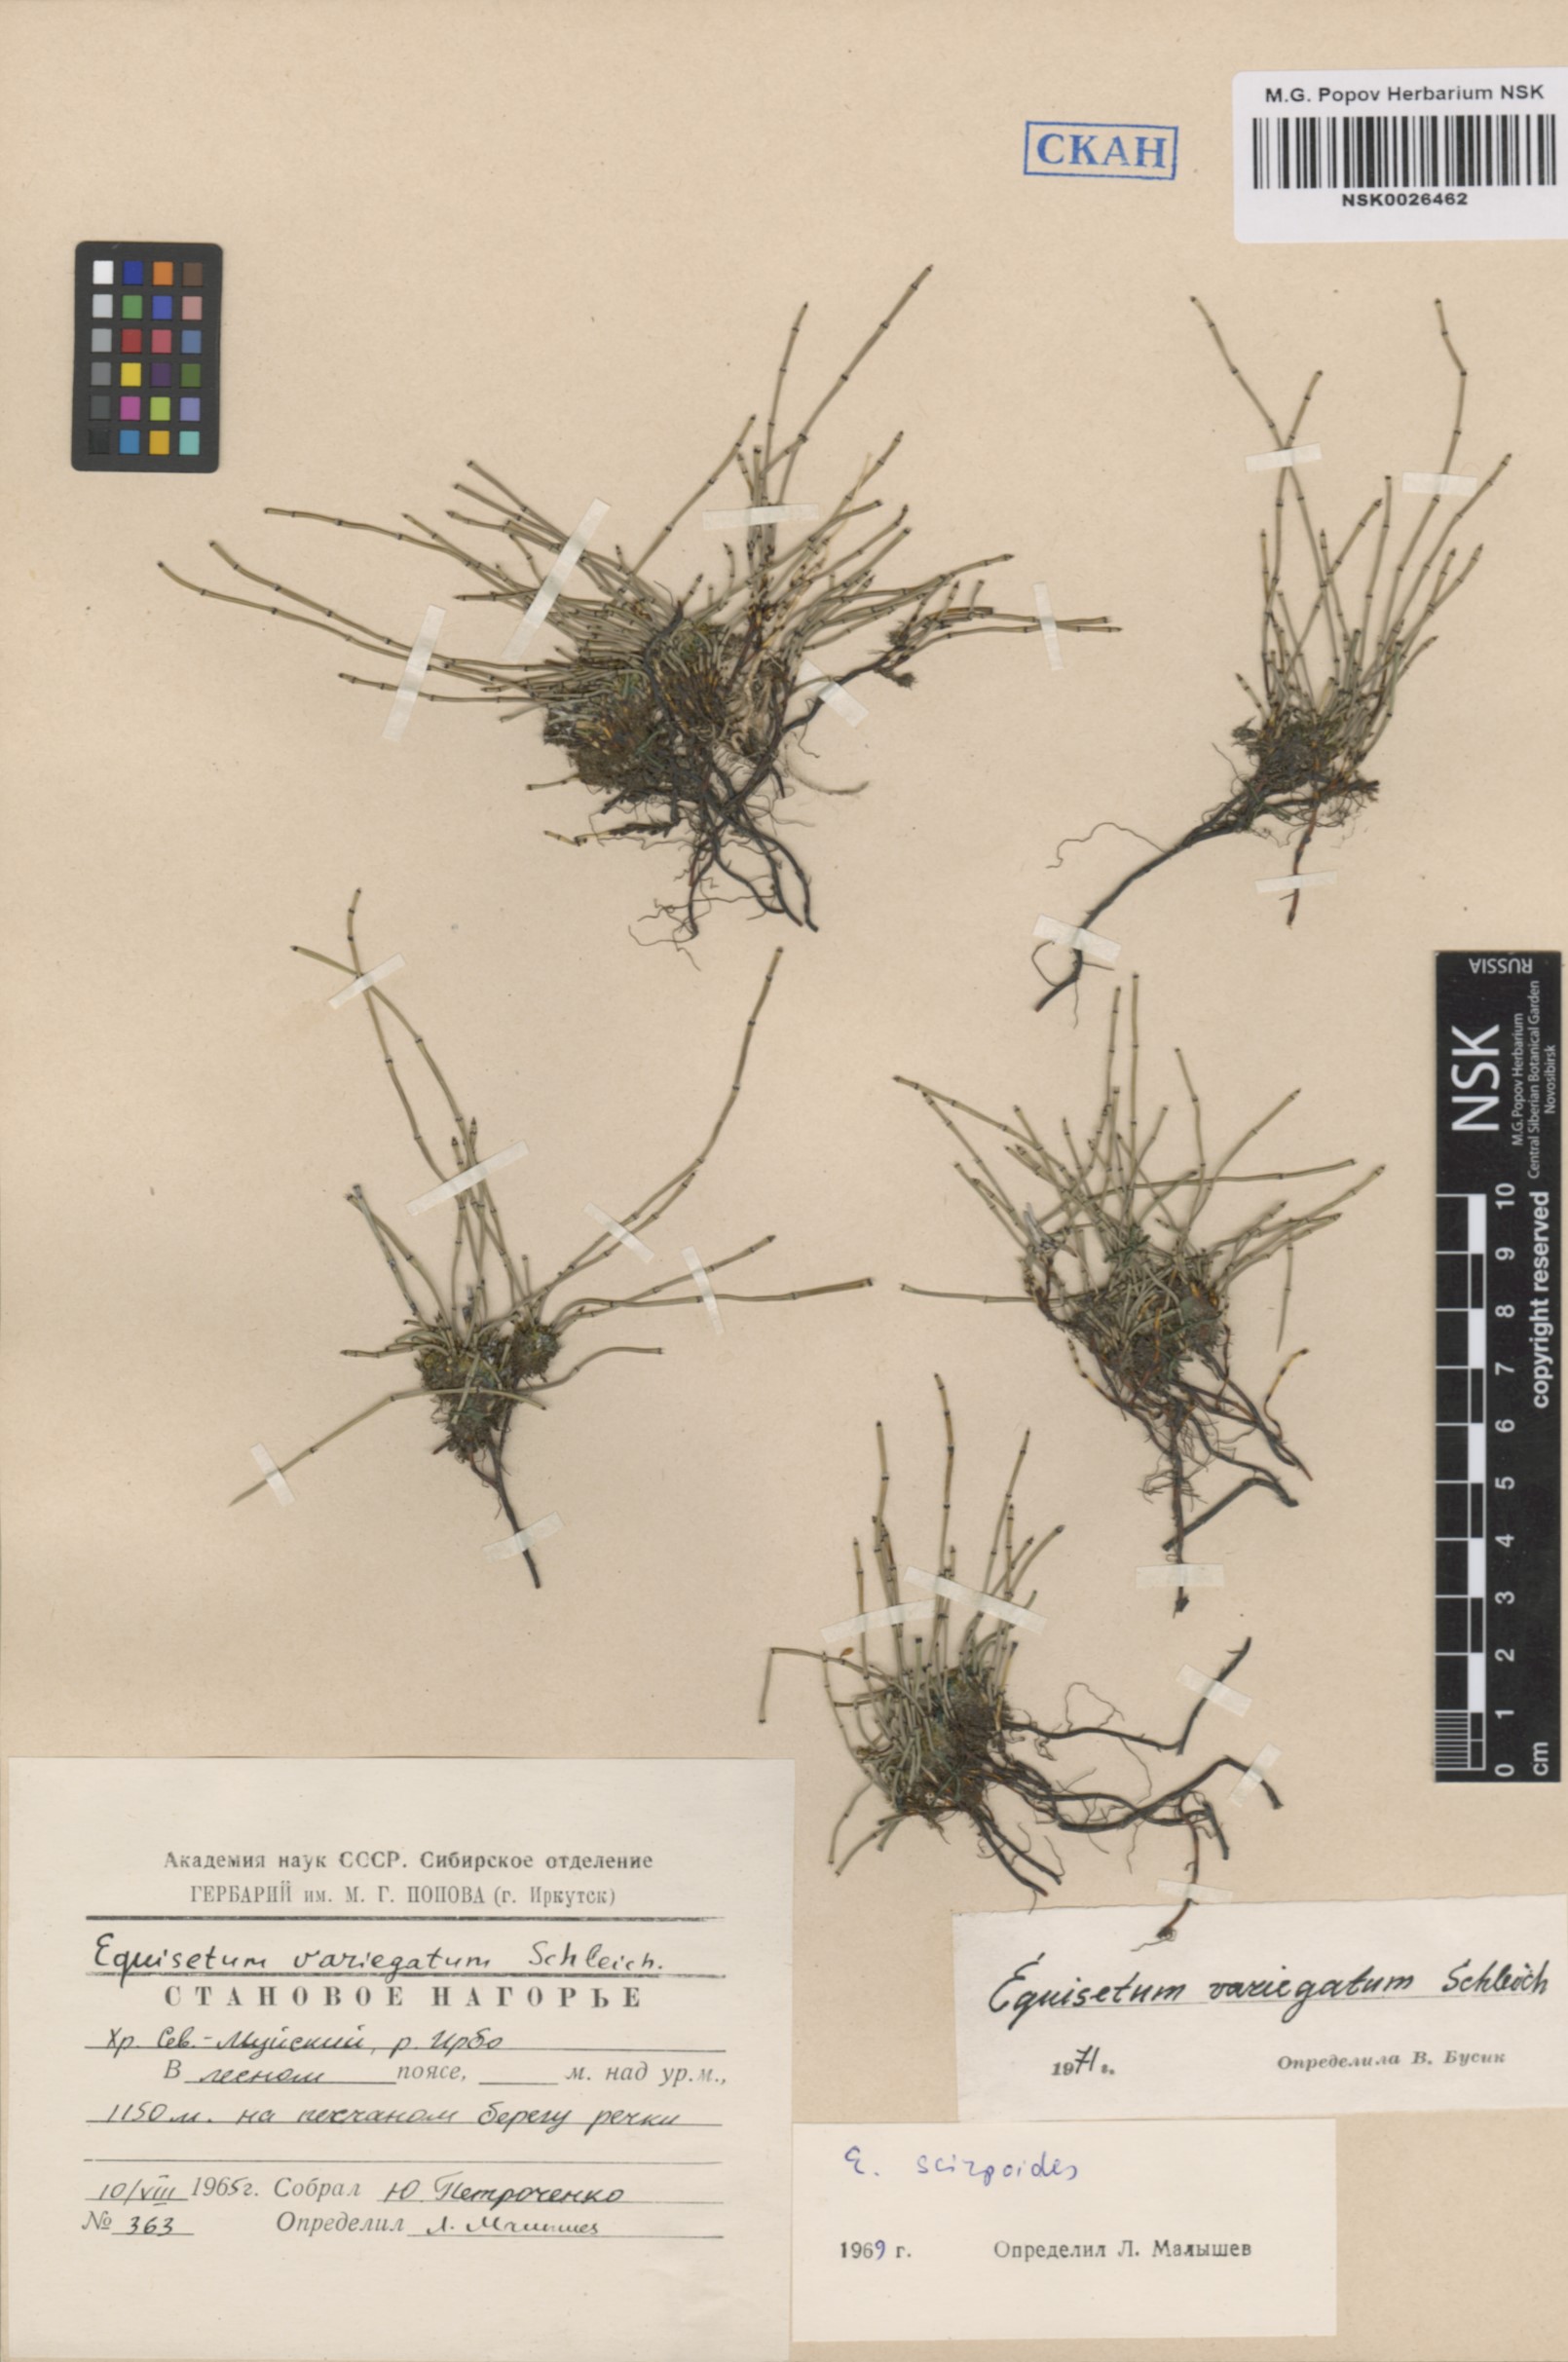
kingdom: Plantae
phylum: Tracheophyta
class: Polypodiopsida
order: Equisetales
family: Equisetaceae
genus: Equisetum
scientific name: Equisetum variegatum
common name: Variegated horsetail
